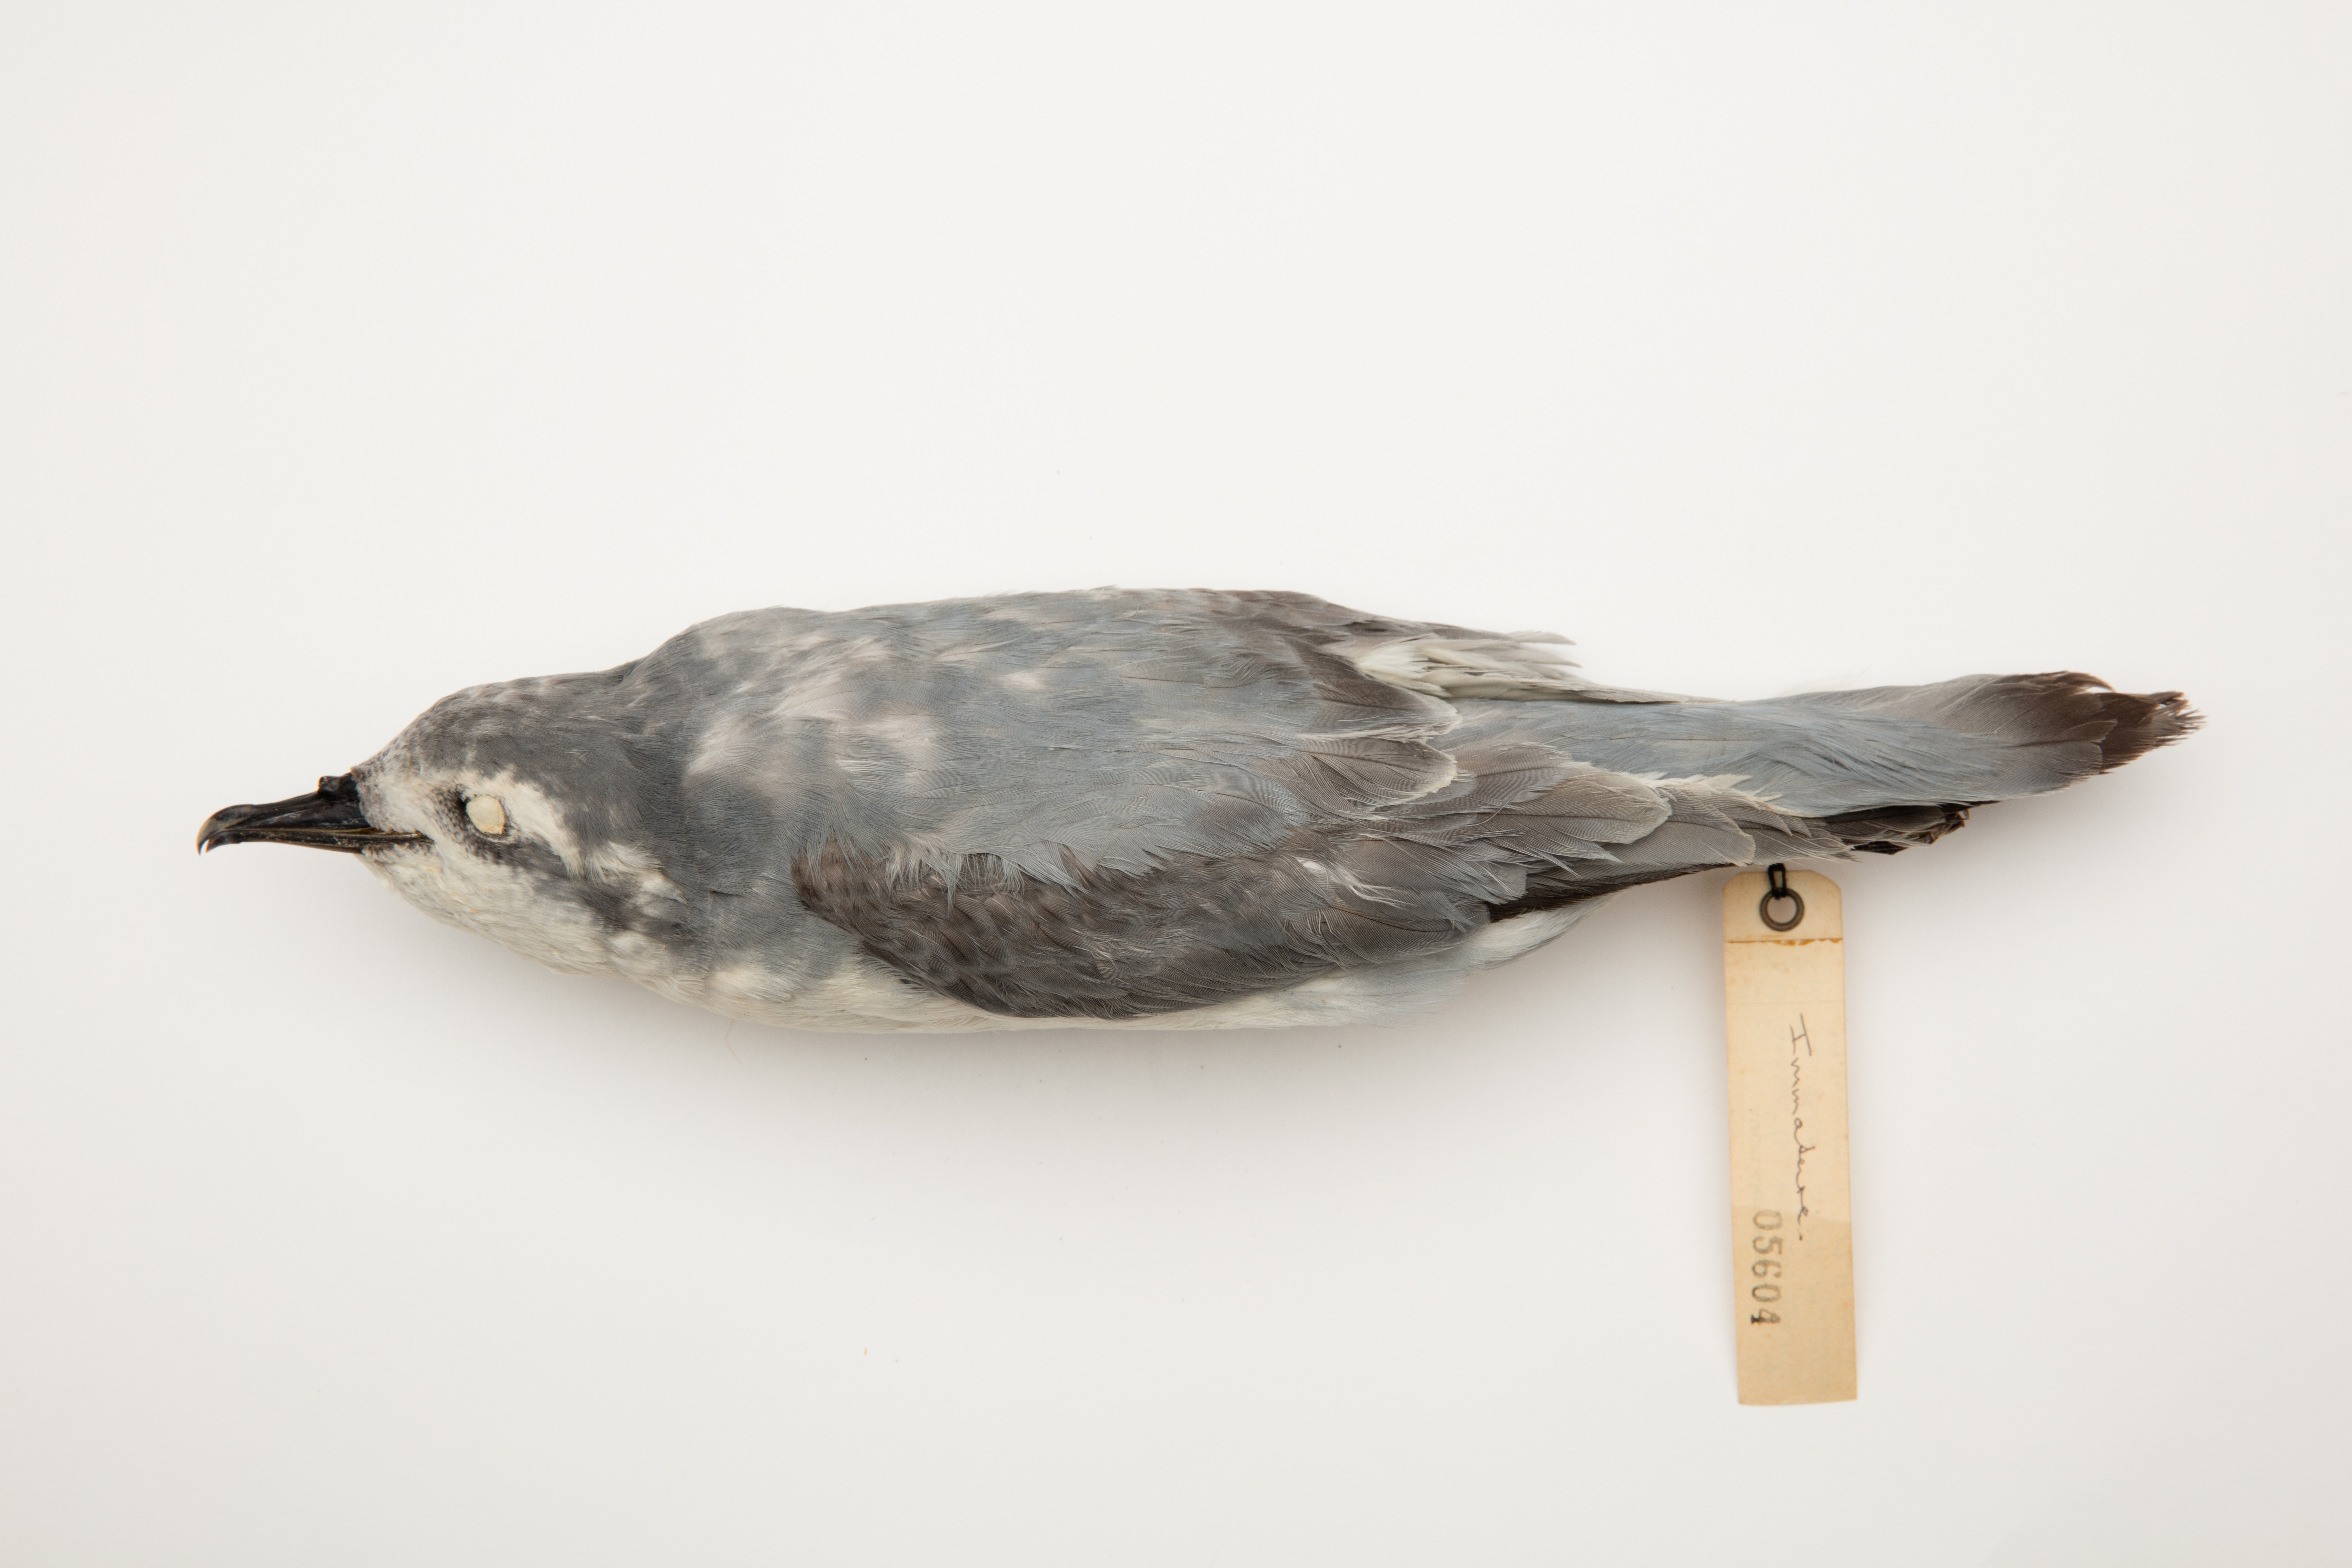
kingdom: Animalia
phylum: Chordata
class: Aves
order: Procellariiformes
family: Procellariidae
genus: Pachyptila
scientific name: Pachyptila belcheri
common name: Slender-billed prion
